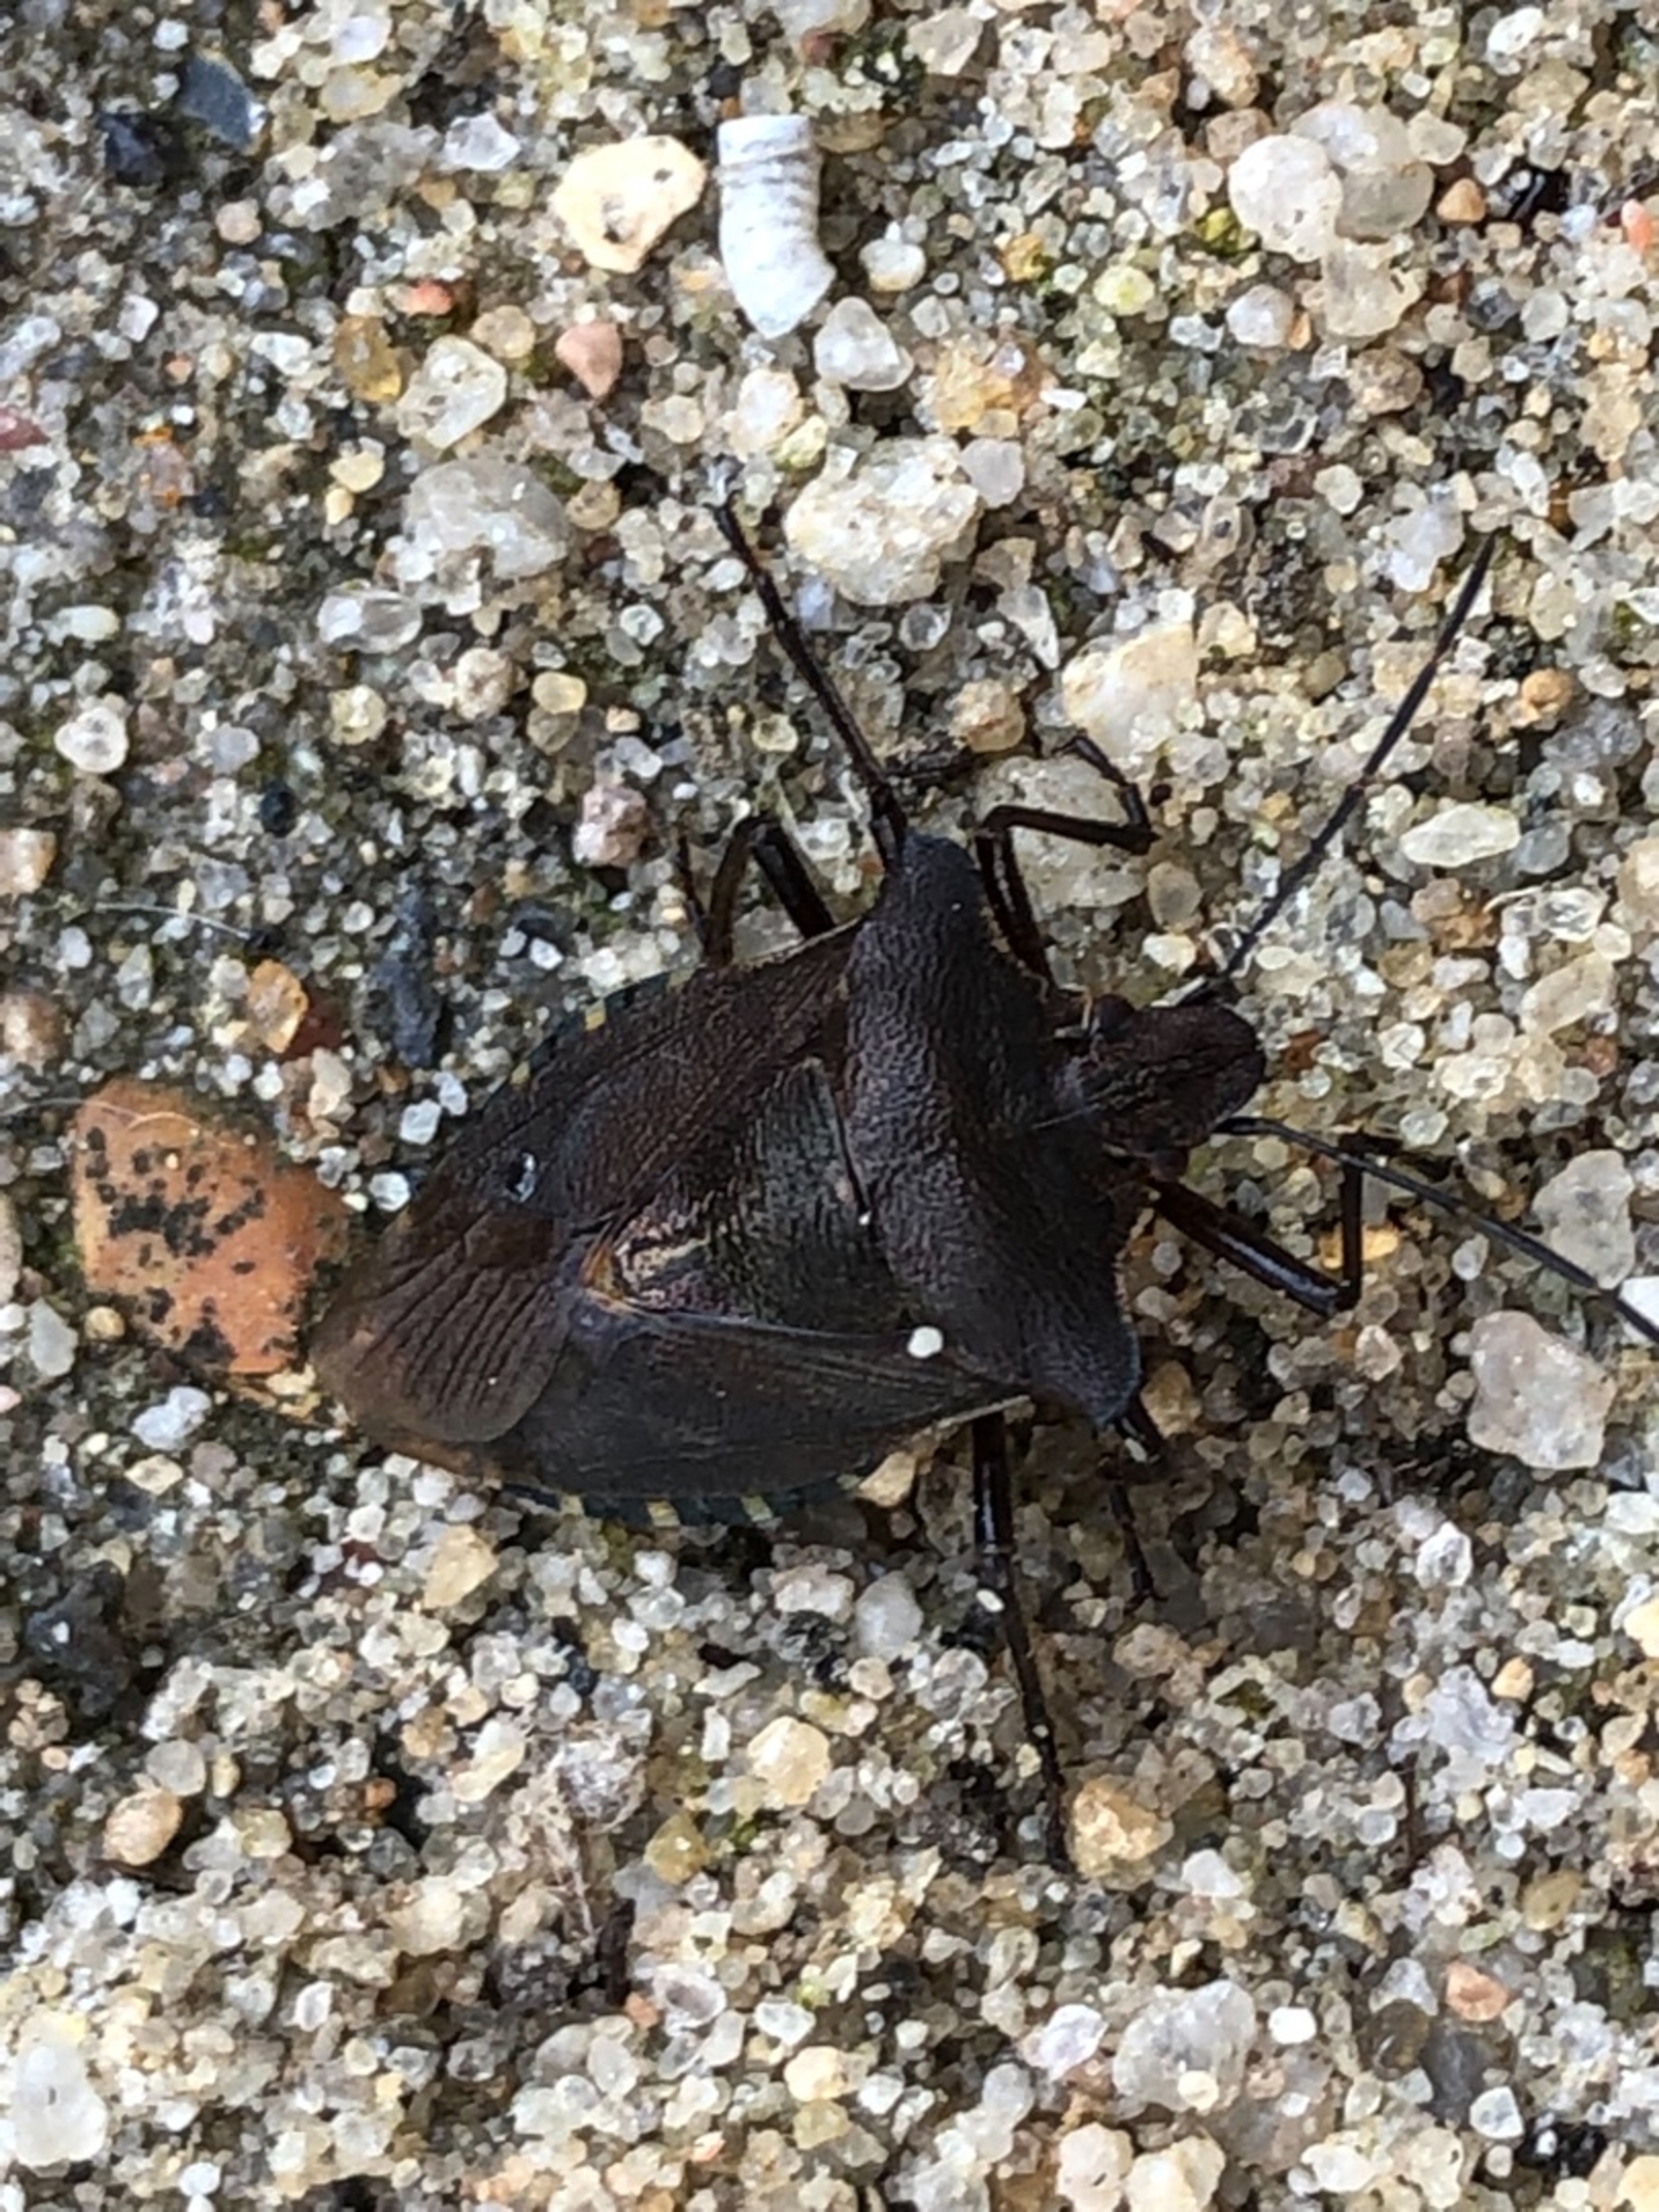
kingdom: Animalia
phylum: Arthropoda
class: Insecta
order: Hemiptera
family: Pentatomidae
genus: Pentatoma
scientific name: Pentatoma rufipes
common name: Rødbenet bredtæge
